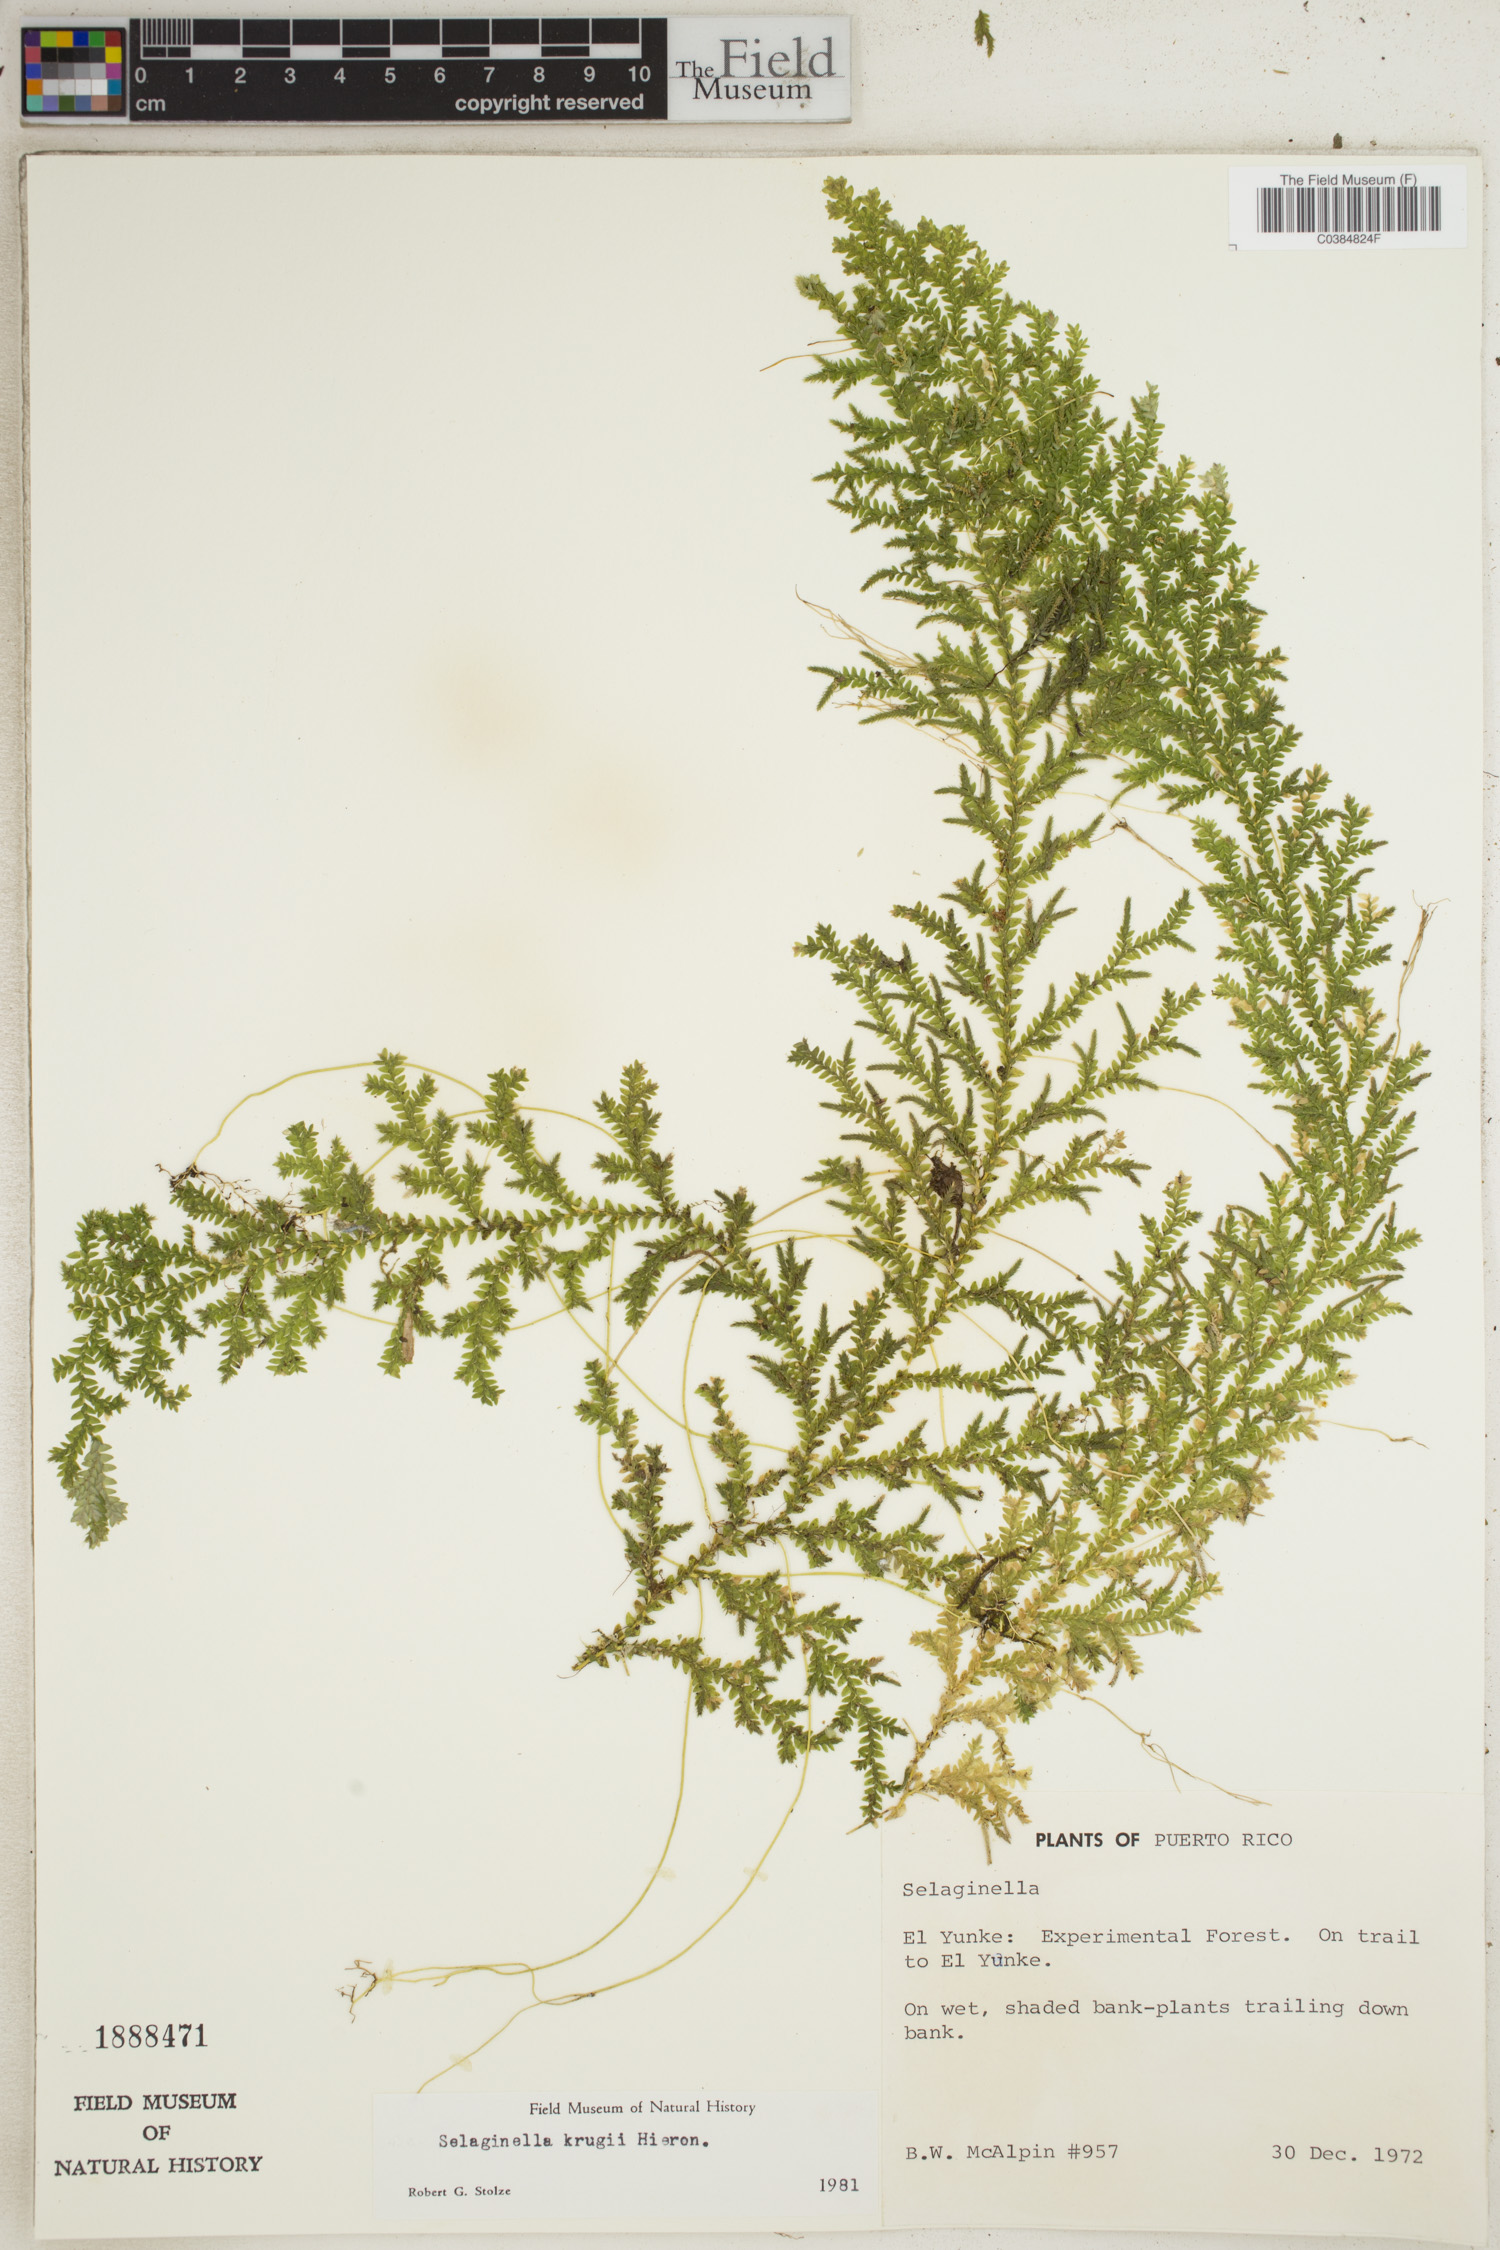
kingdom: Plantae
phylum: Tracheophyta
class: Lycopodiopsida
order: Selaginellales
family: Selaginellaceae
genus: Selaginella
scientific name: Selaginella krugii
